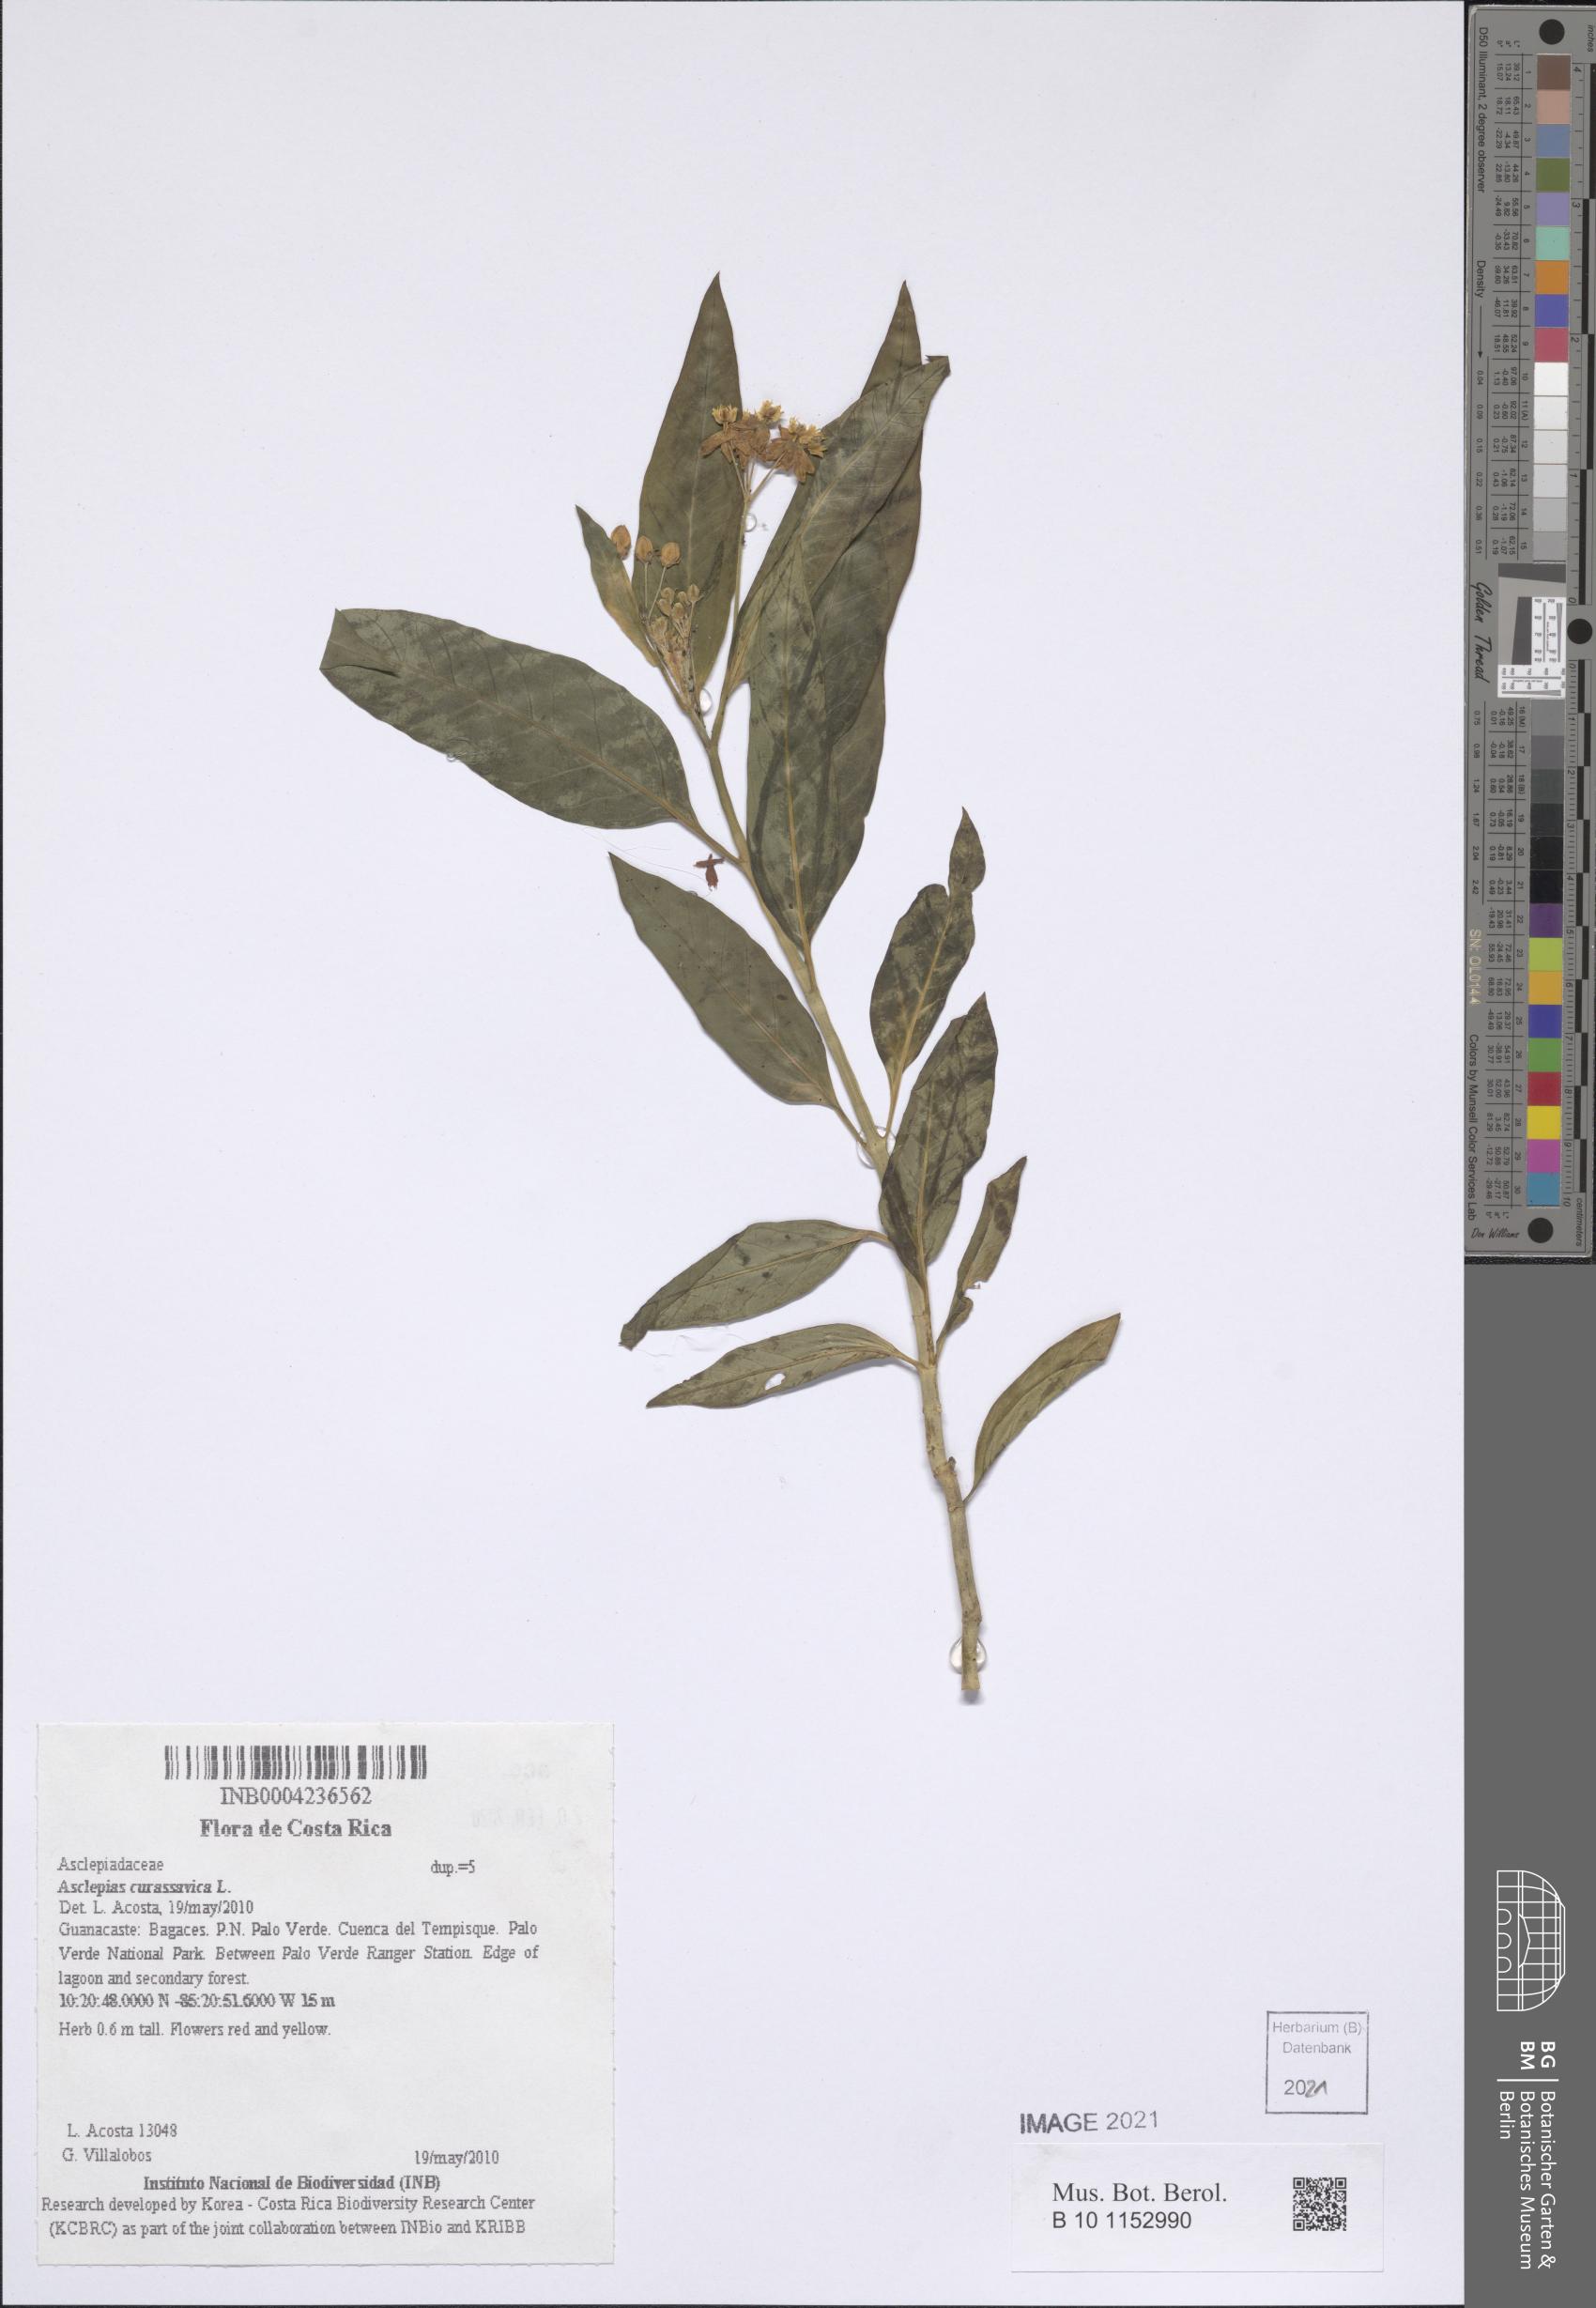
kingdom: Plantae
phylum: Tracheophyta
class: Magnoliopsida
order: Gentianales
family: Apocynaceae
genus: Asclepias
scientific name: Asclepias curassavica
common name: Bloodflower
